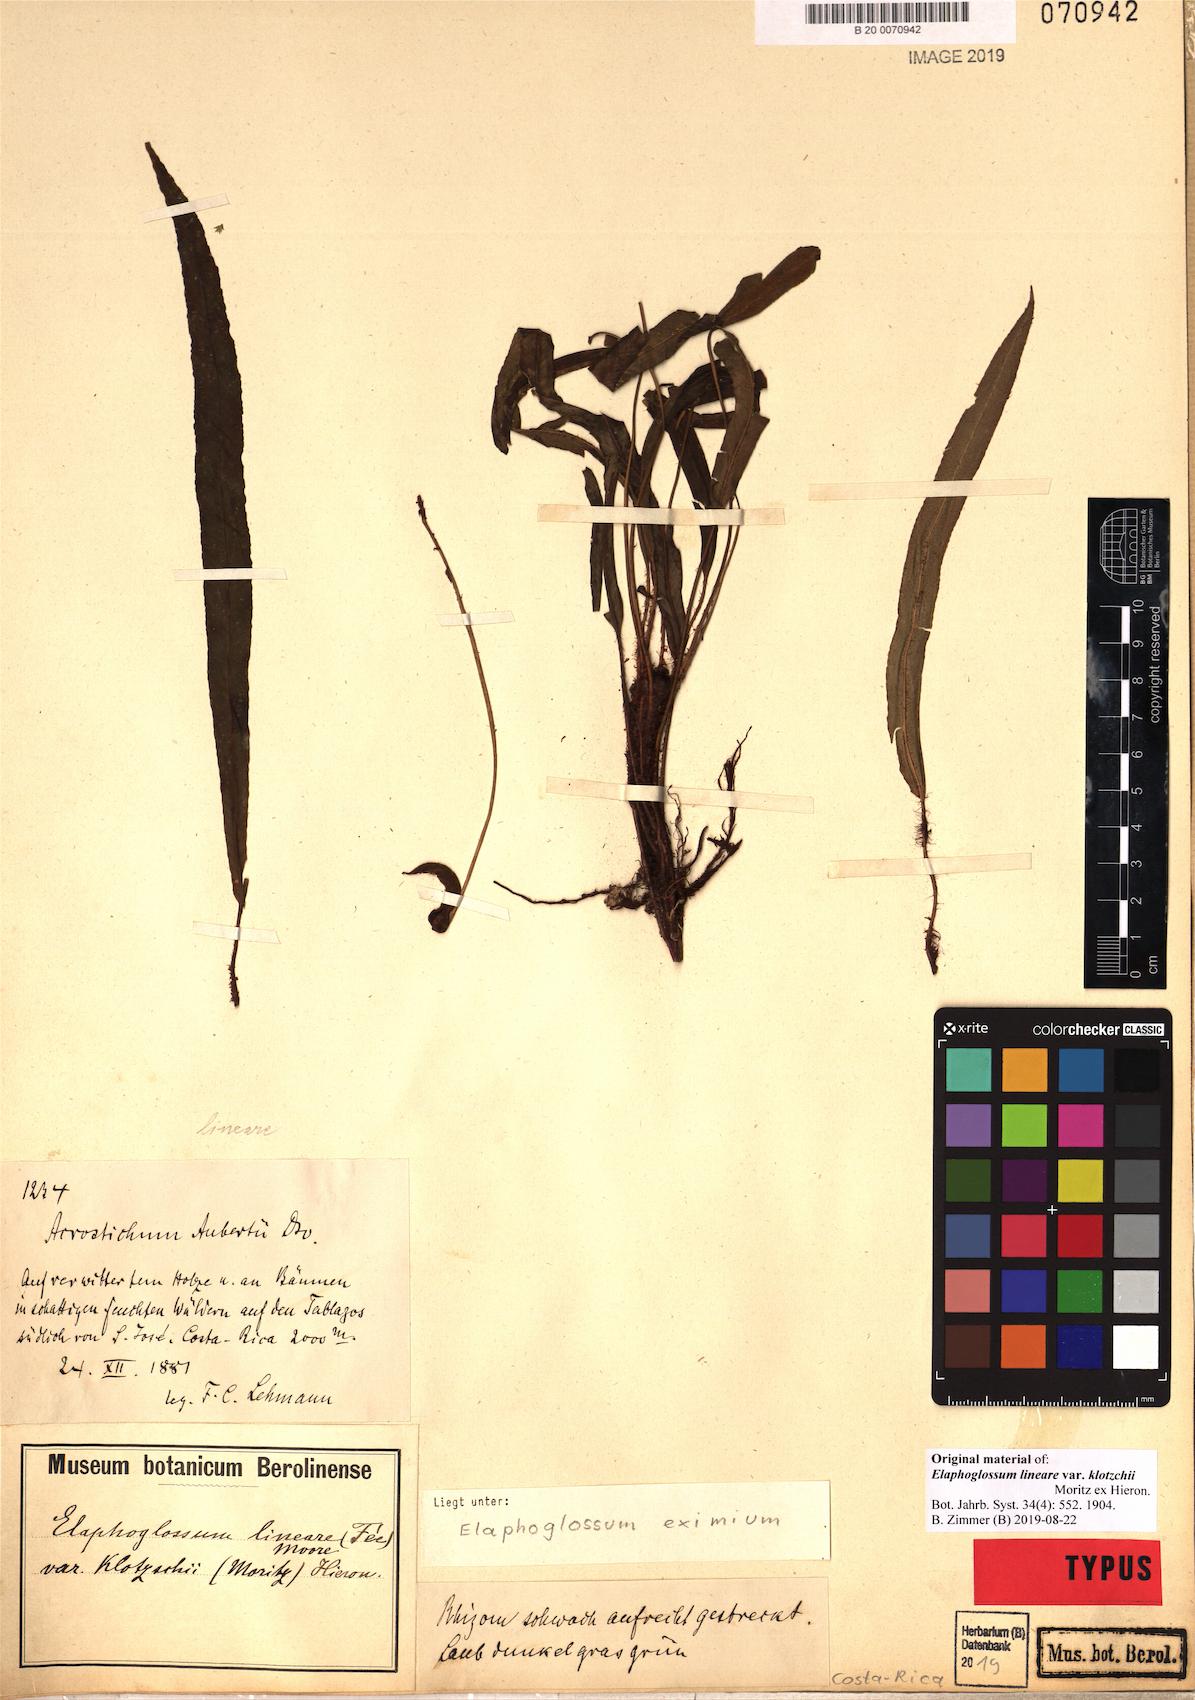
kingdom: Plantae
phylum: Tracheophyta
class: Polypodiopsida
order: Polypodiales
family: Dryopteridaceae
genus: Elaphoglossum
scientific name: Elaphoglossum eximium
